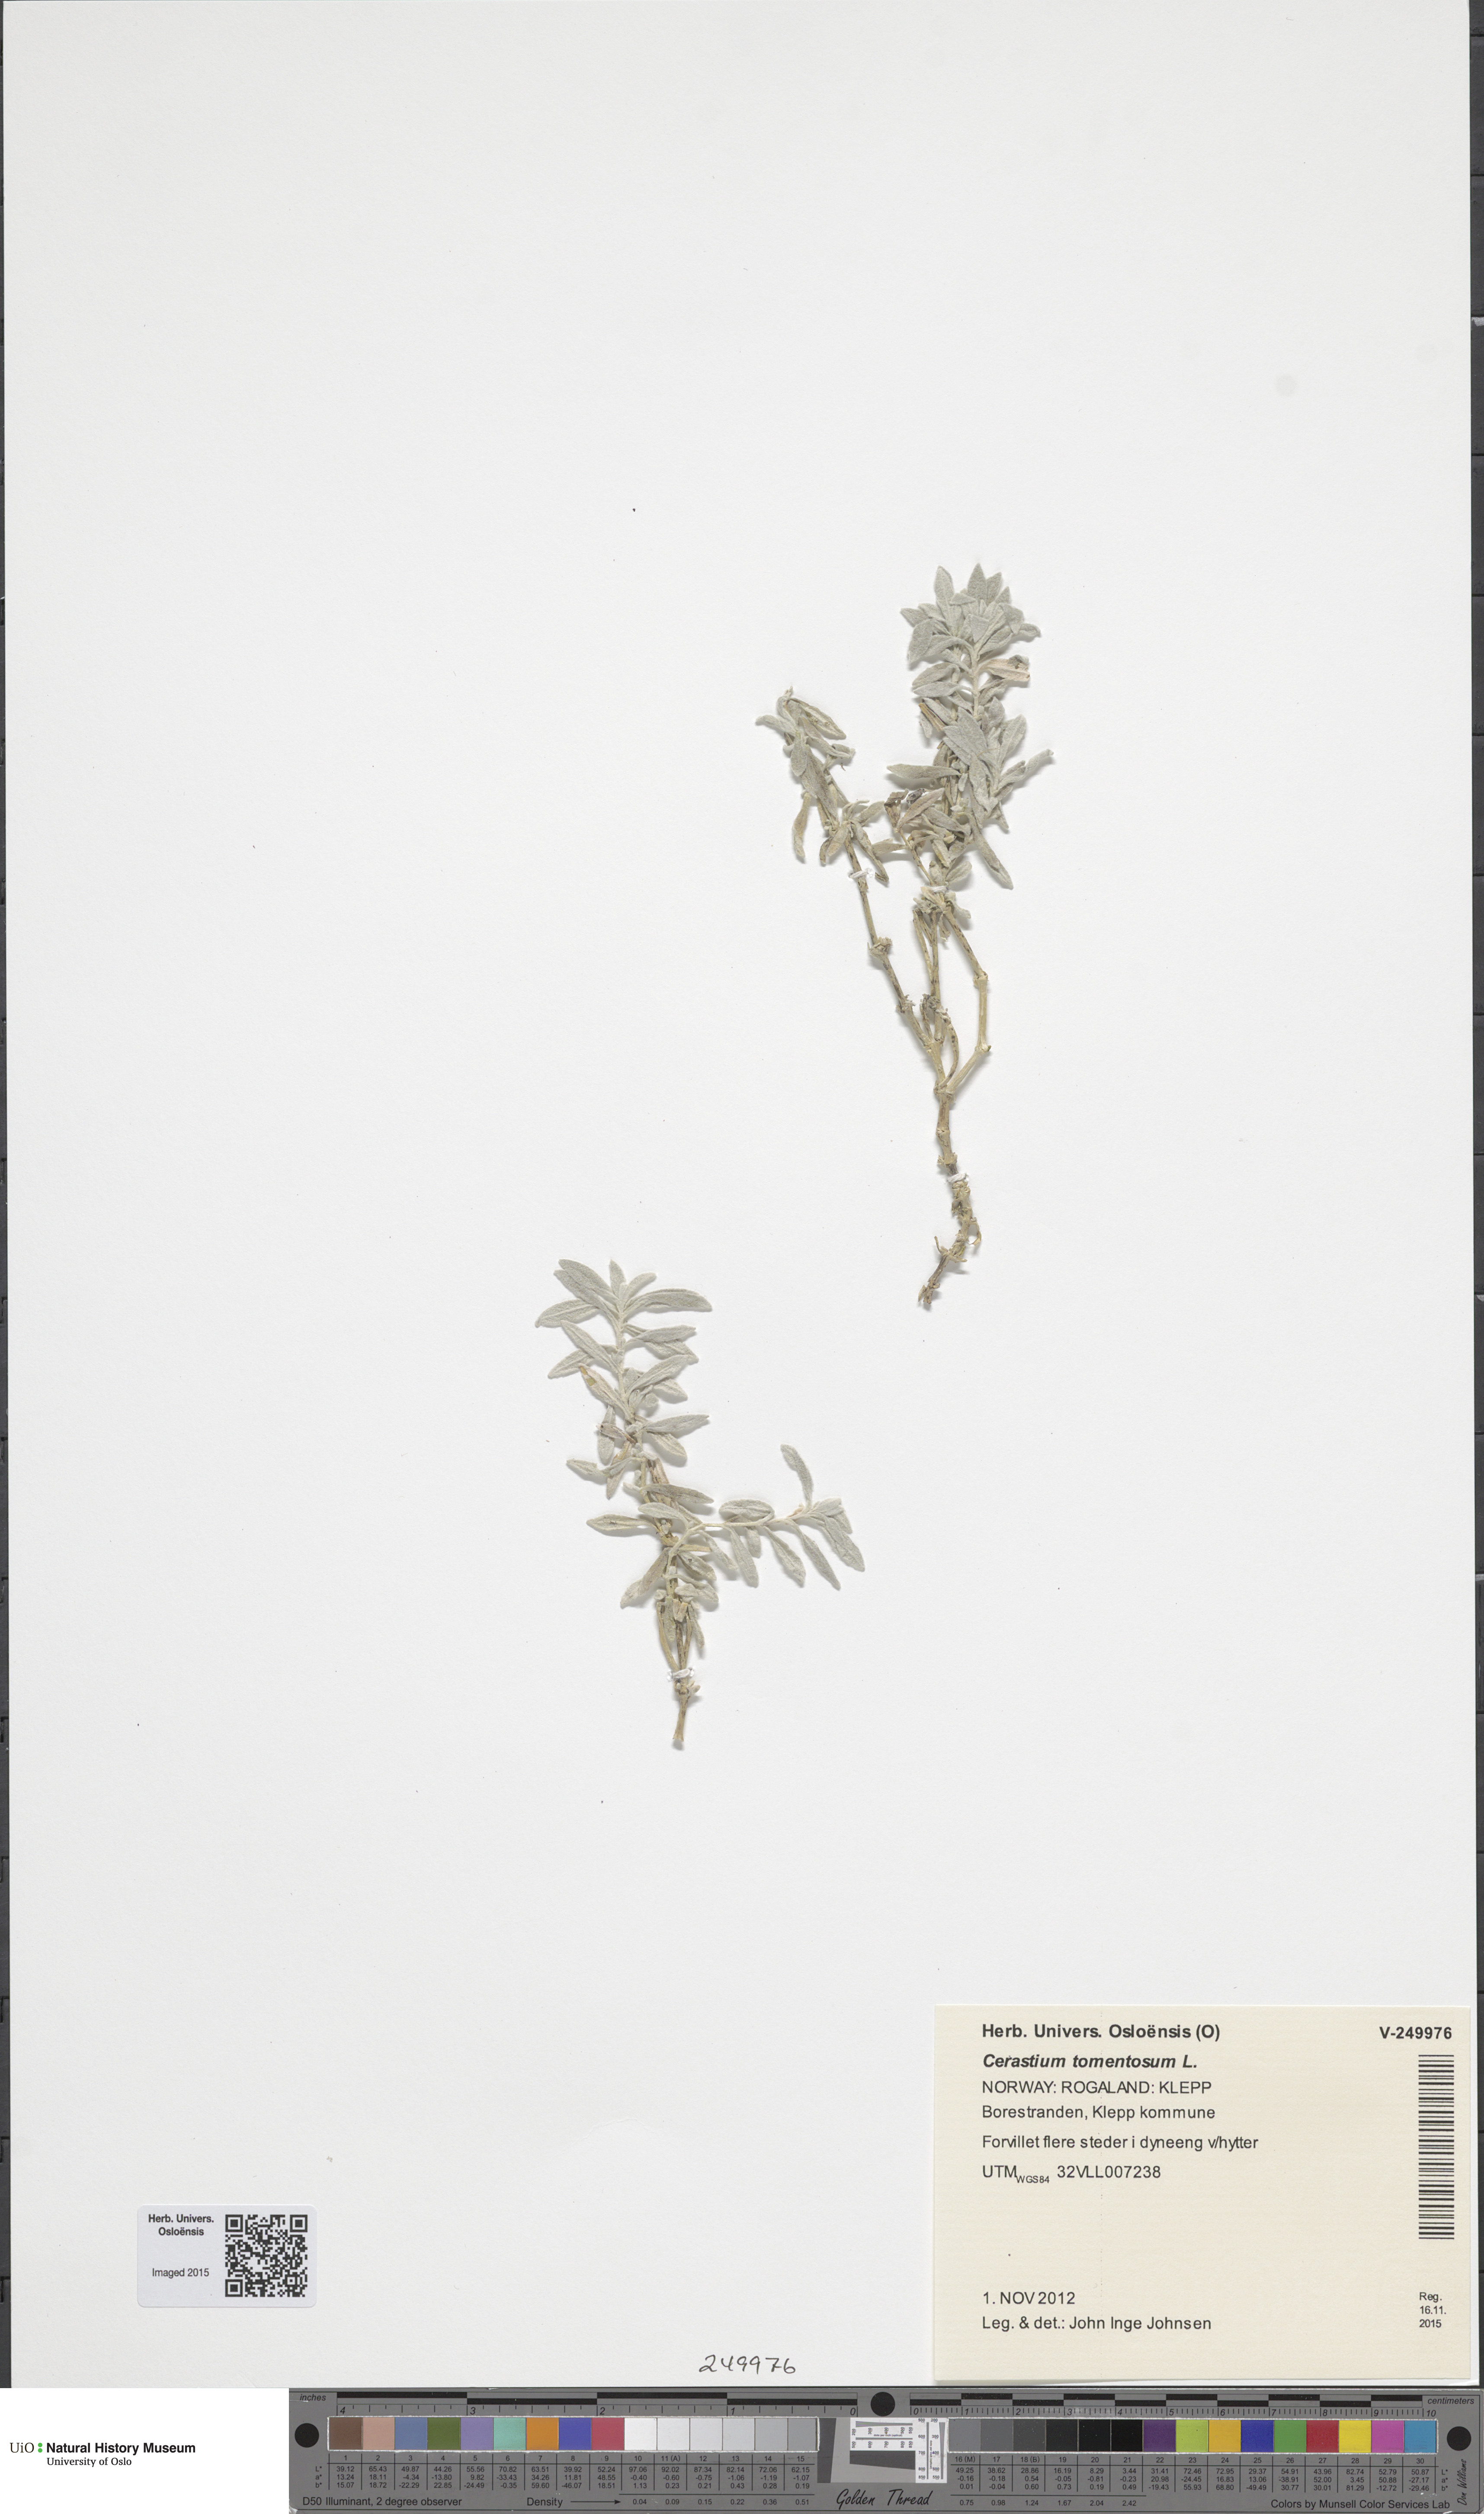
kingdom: Plantae
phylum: Tracheophyta
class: Magnoliopsida
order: Caryophyllales
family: Caryophyllaceae
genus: Cerastium
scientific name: Cerastium tomentosum
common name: Snow-in-summer
